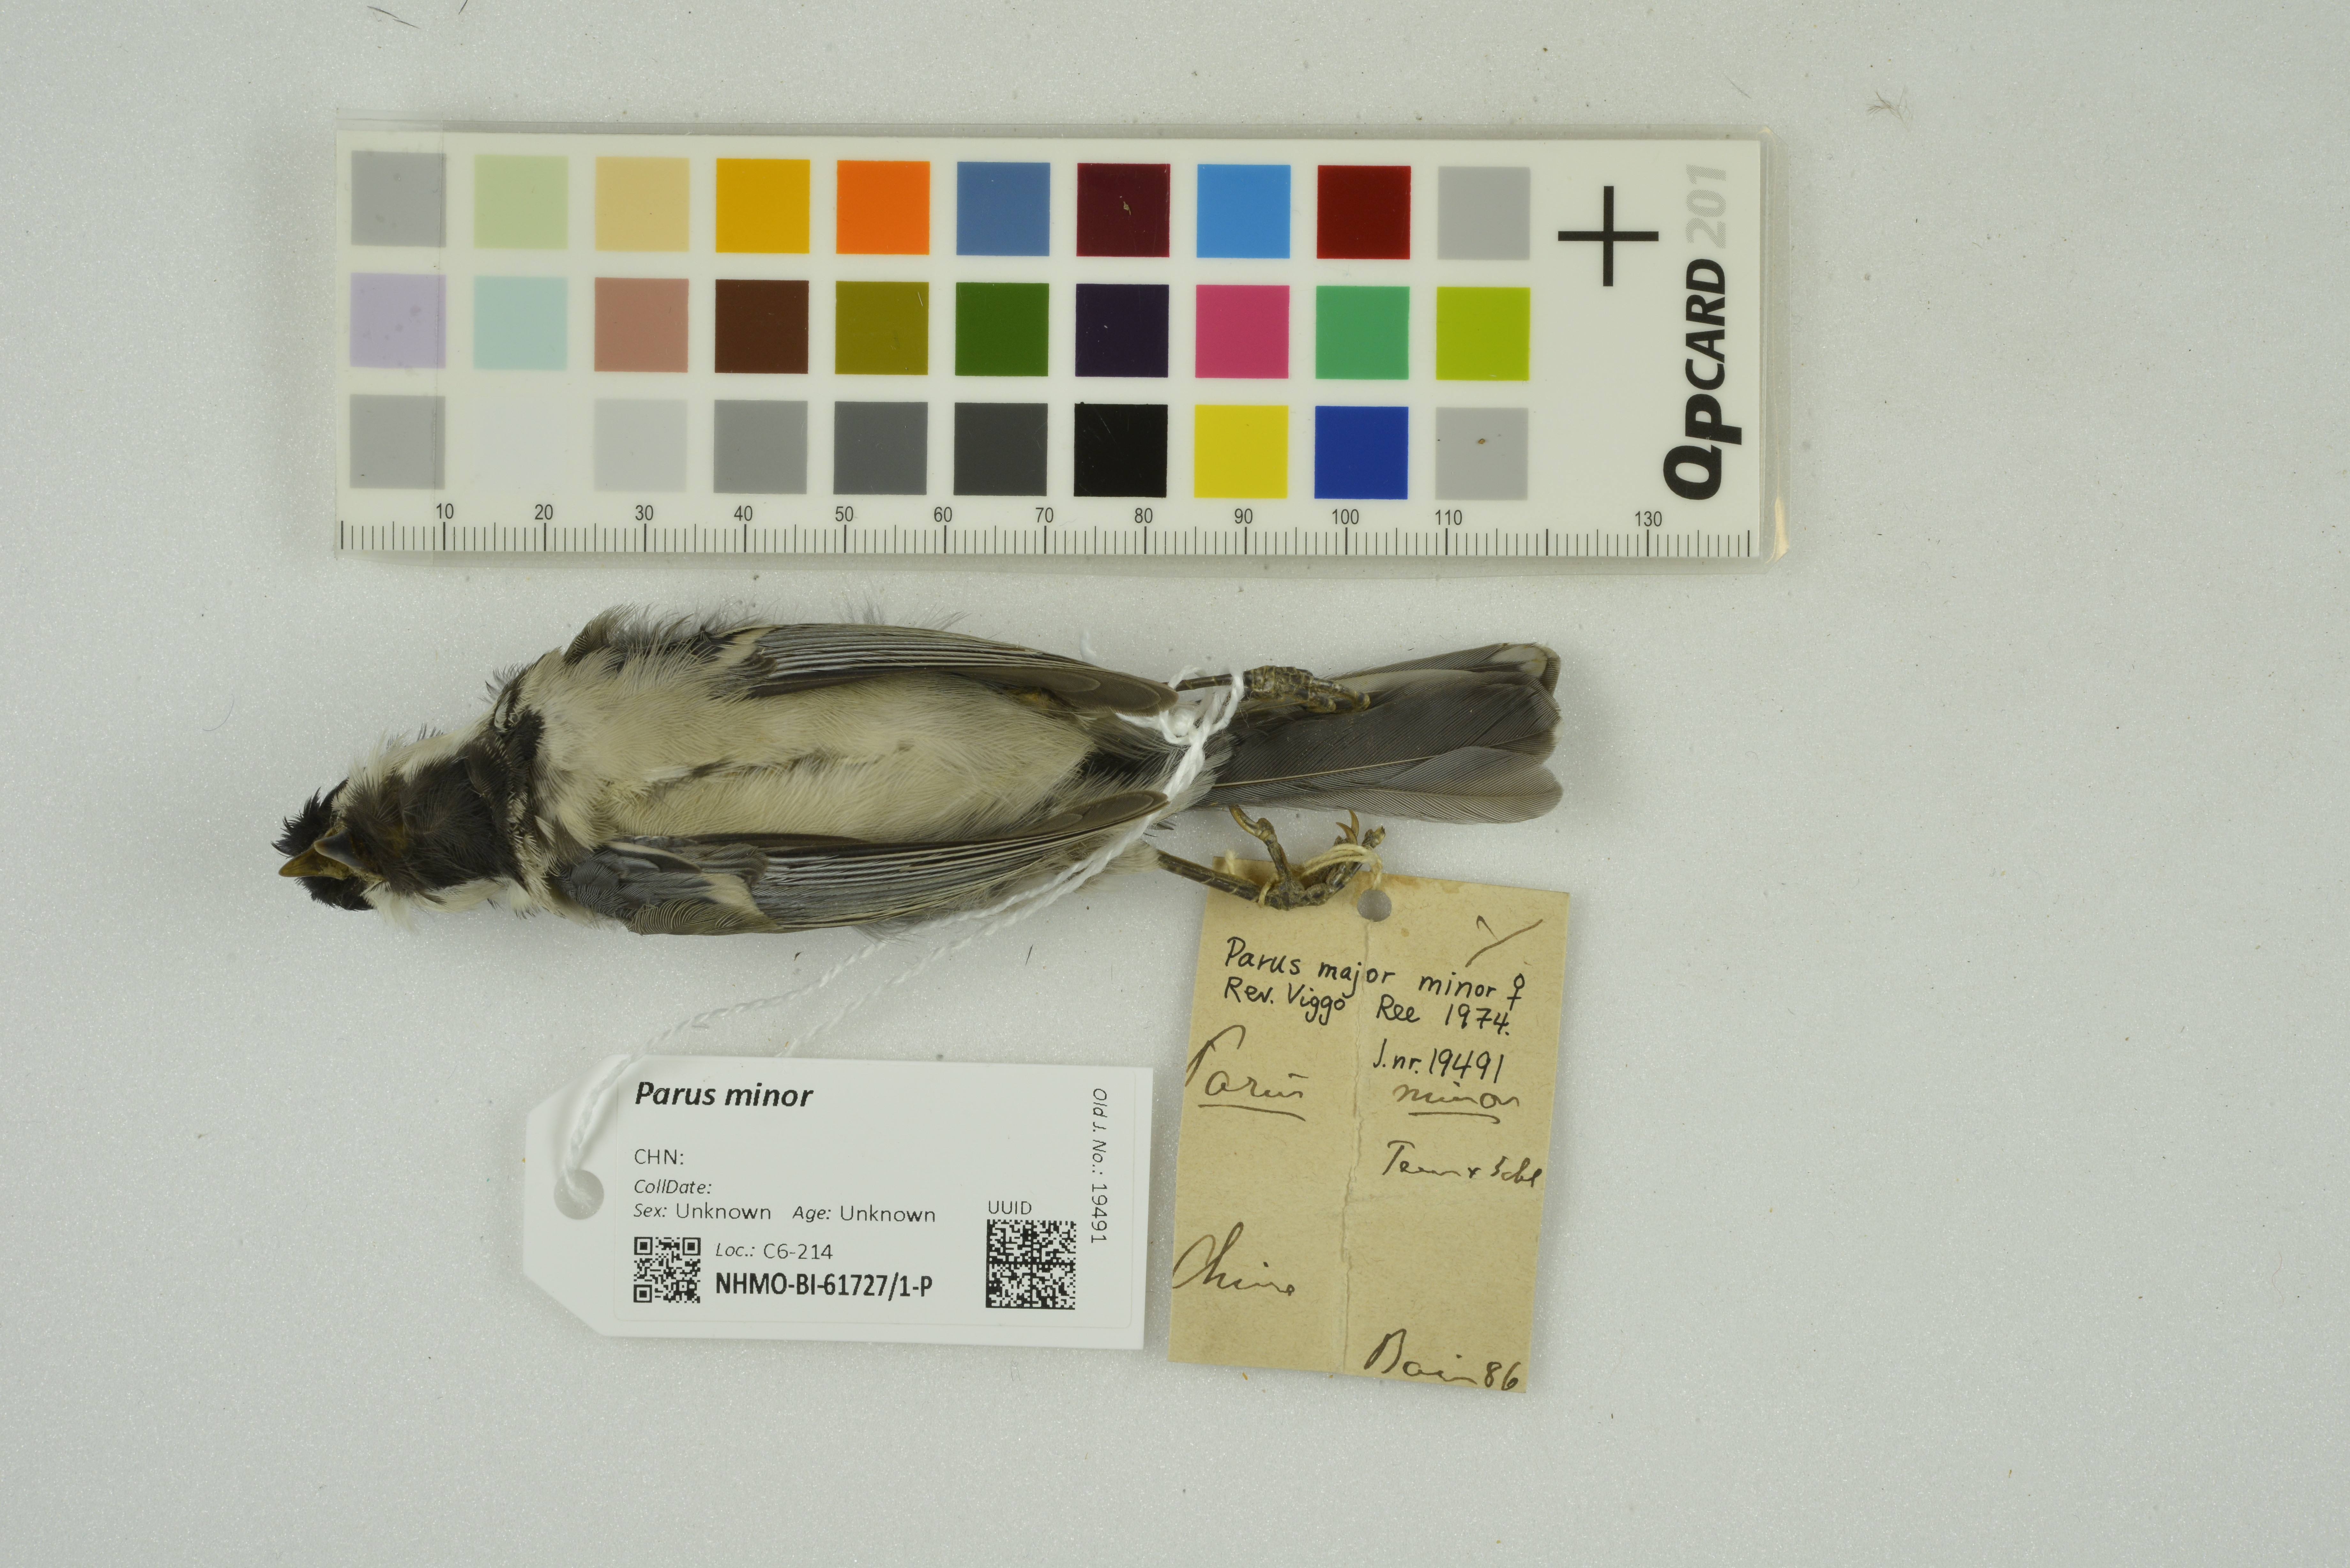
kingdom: Animalia
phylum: Chordata
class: Aves
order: Passeriformes
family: Paridae
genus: Parus
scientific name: Parus minor
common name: Japanese tit
